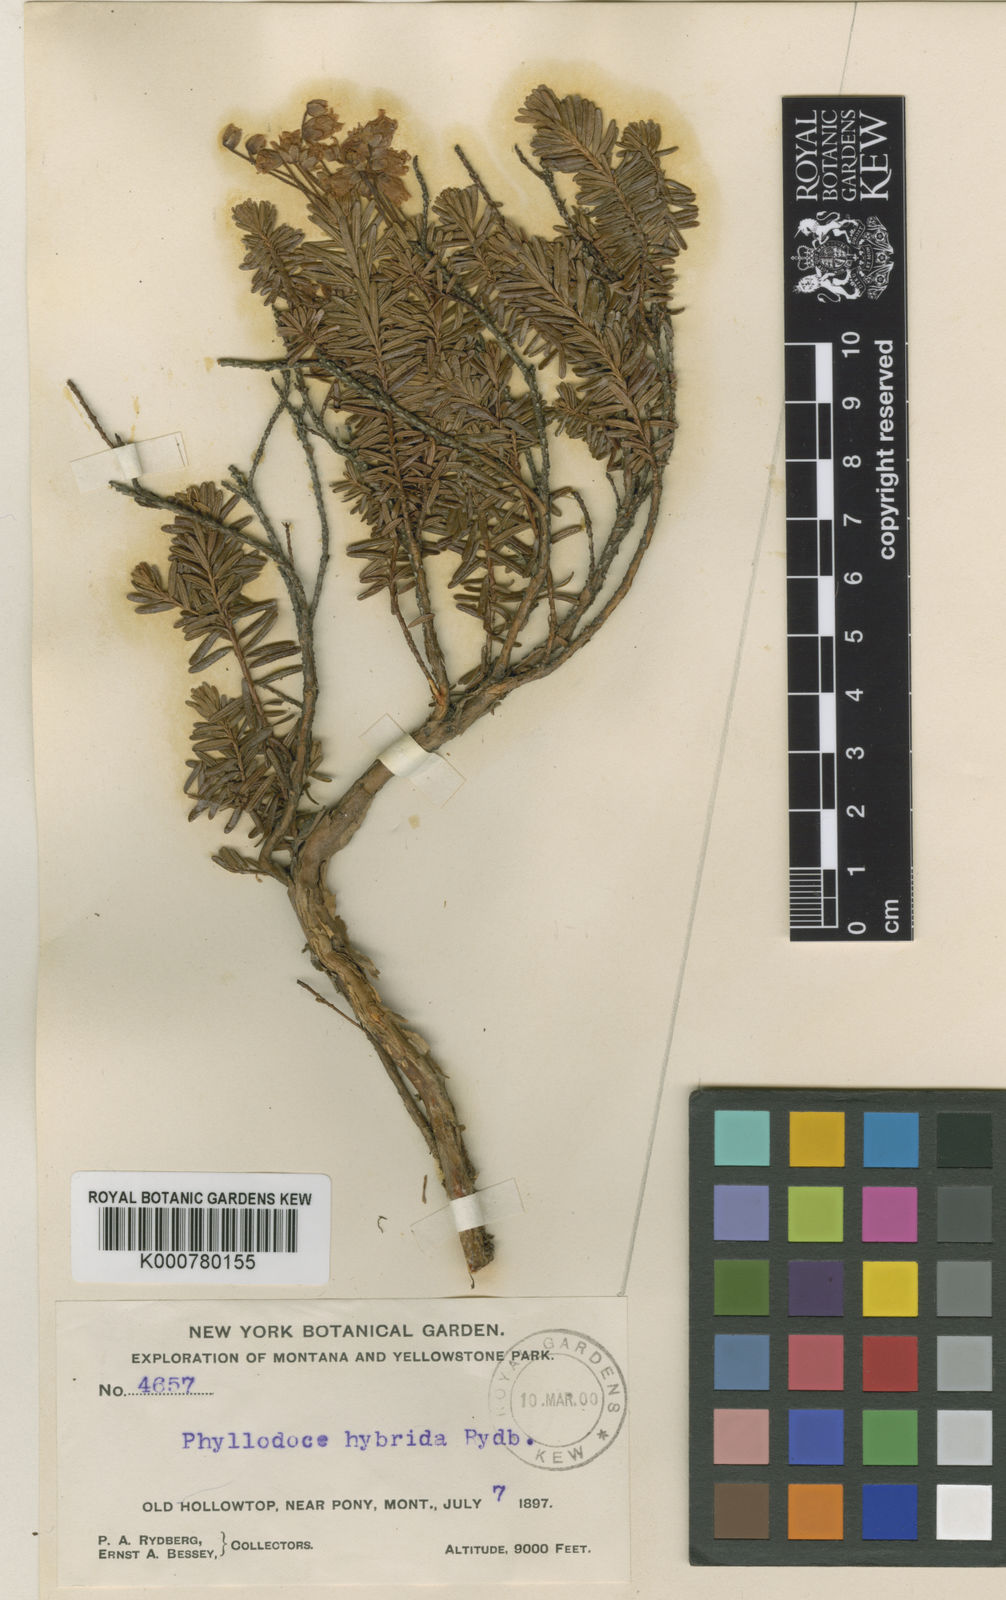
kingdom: Plantae
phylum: Tracheophyta
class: Magnoliopsida
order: Ericales
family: Ericaceae
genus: Phyllodoce
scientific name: Phyllodoce intermedia
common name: Hybrid mountain heather
